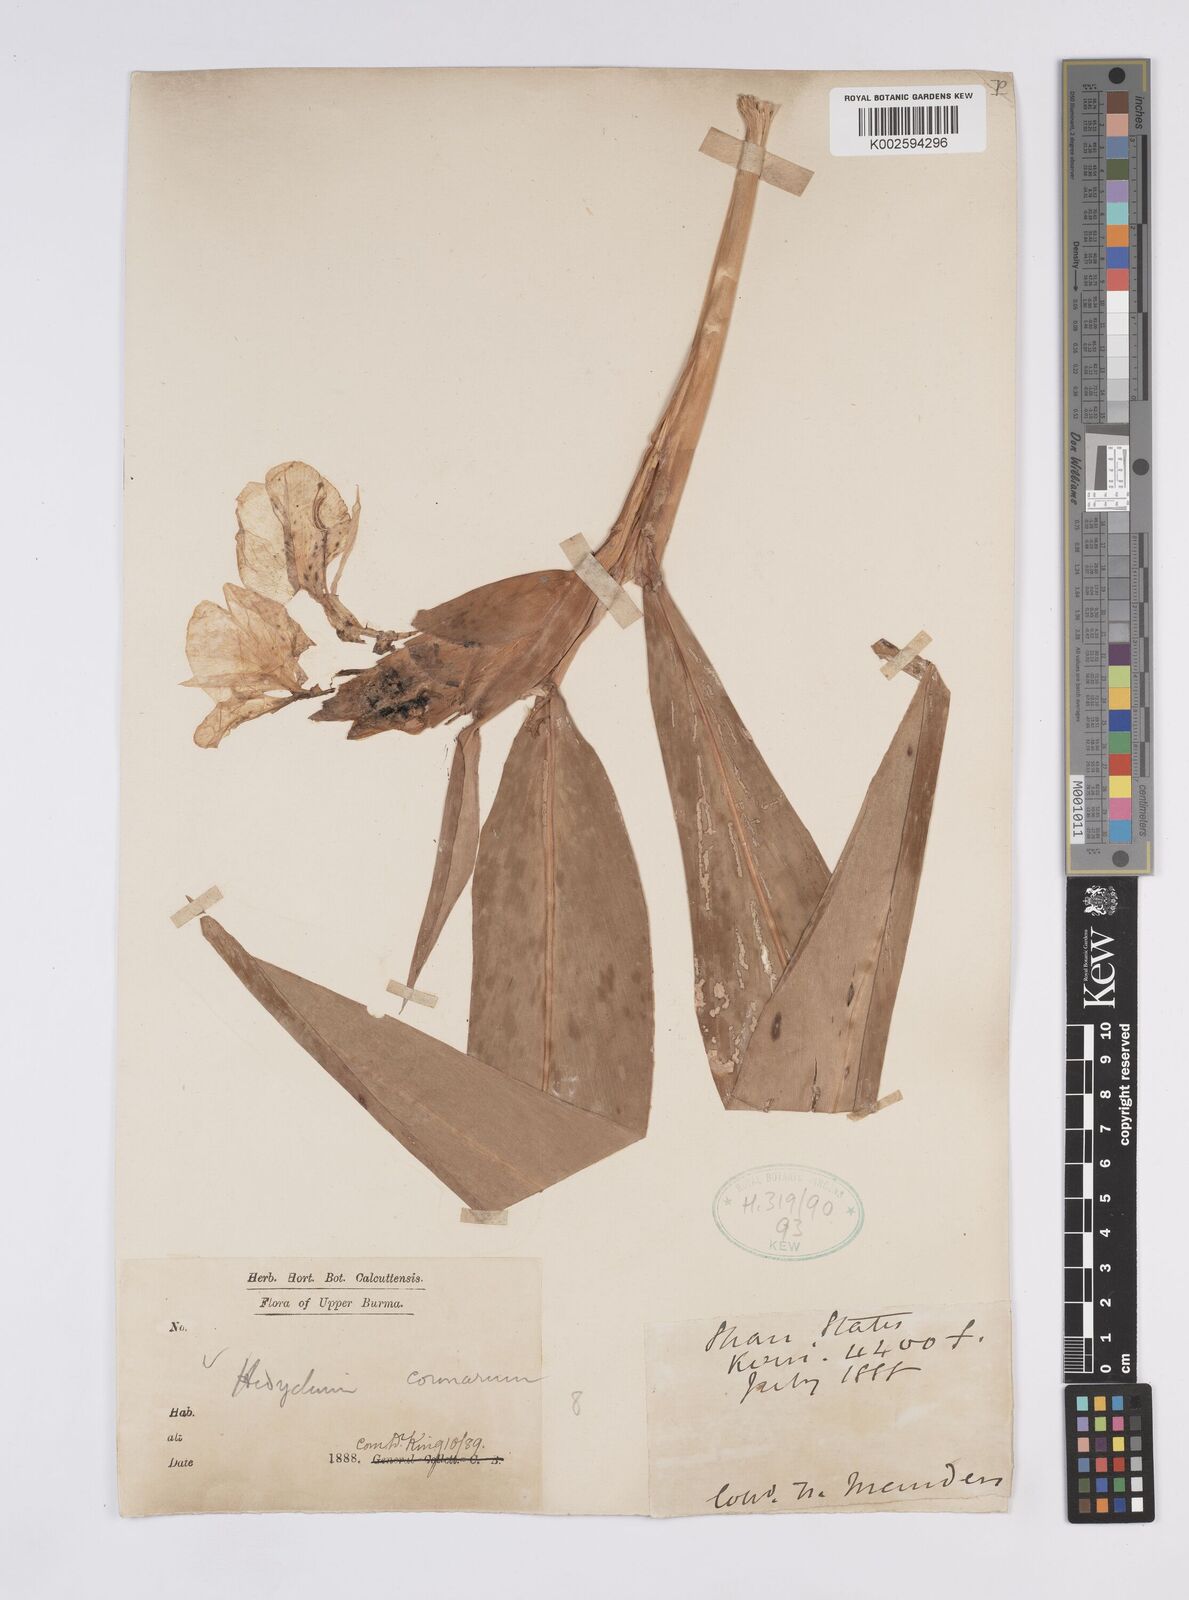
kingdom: Plantae
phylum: Tracheophyta
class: Liliopsida
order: Zingiberales
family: Zingiberaceae
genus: Hedychium
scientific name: Hedychium coronarium
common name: White garland-lily
